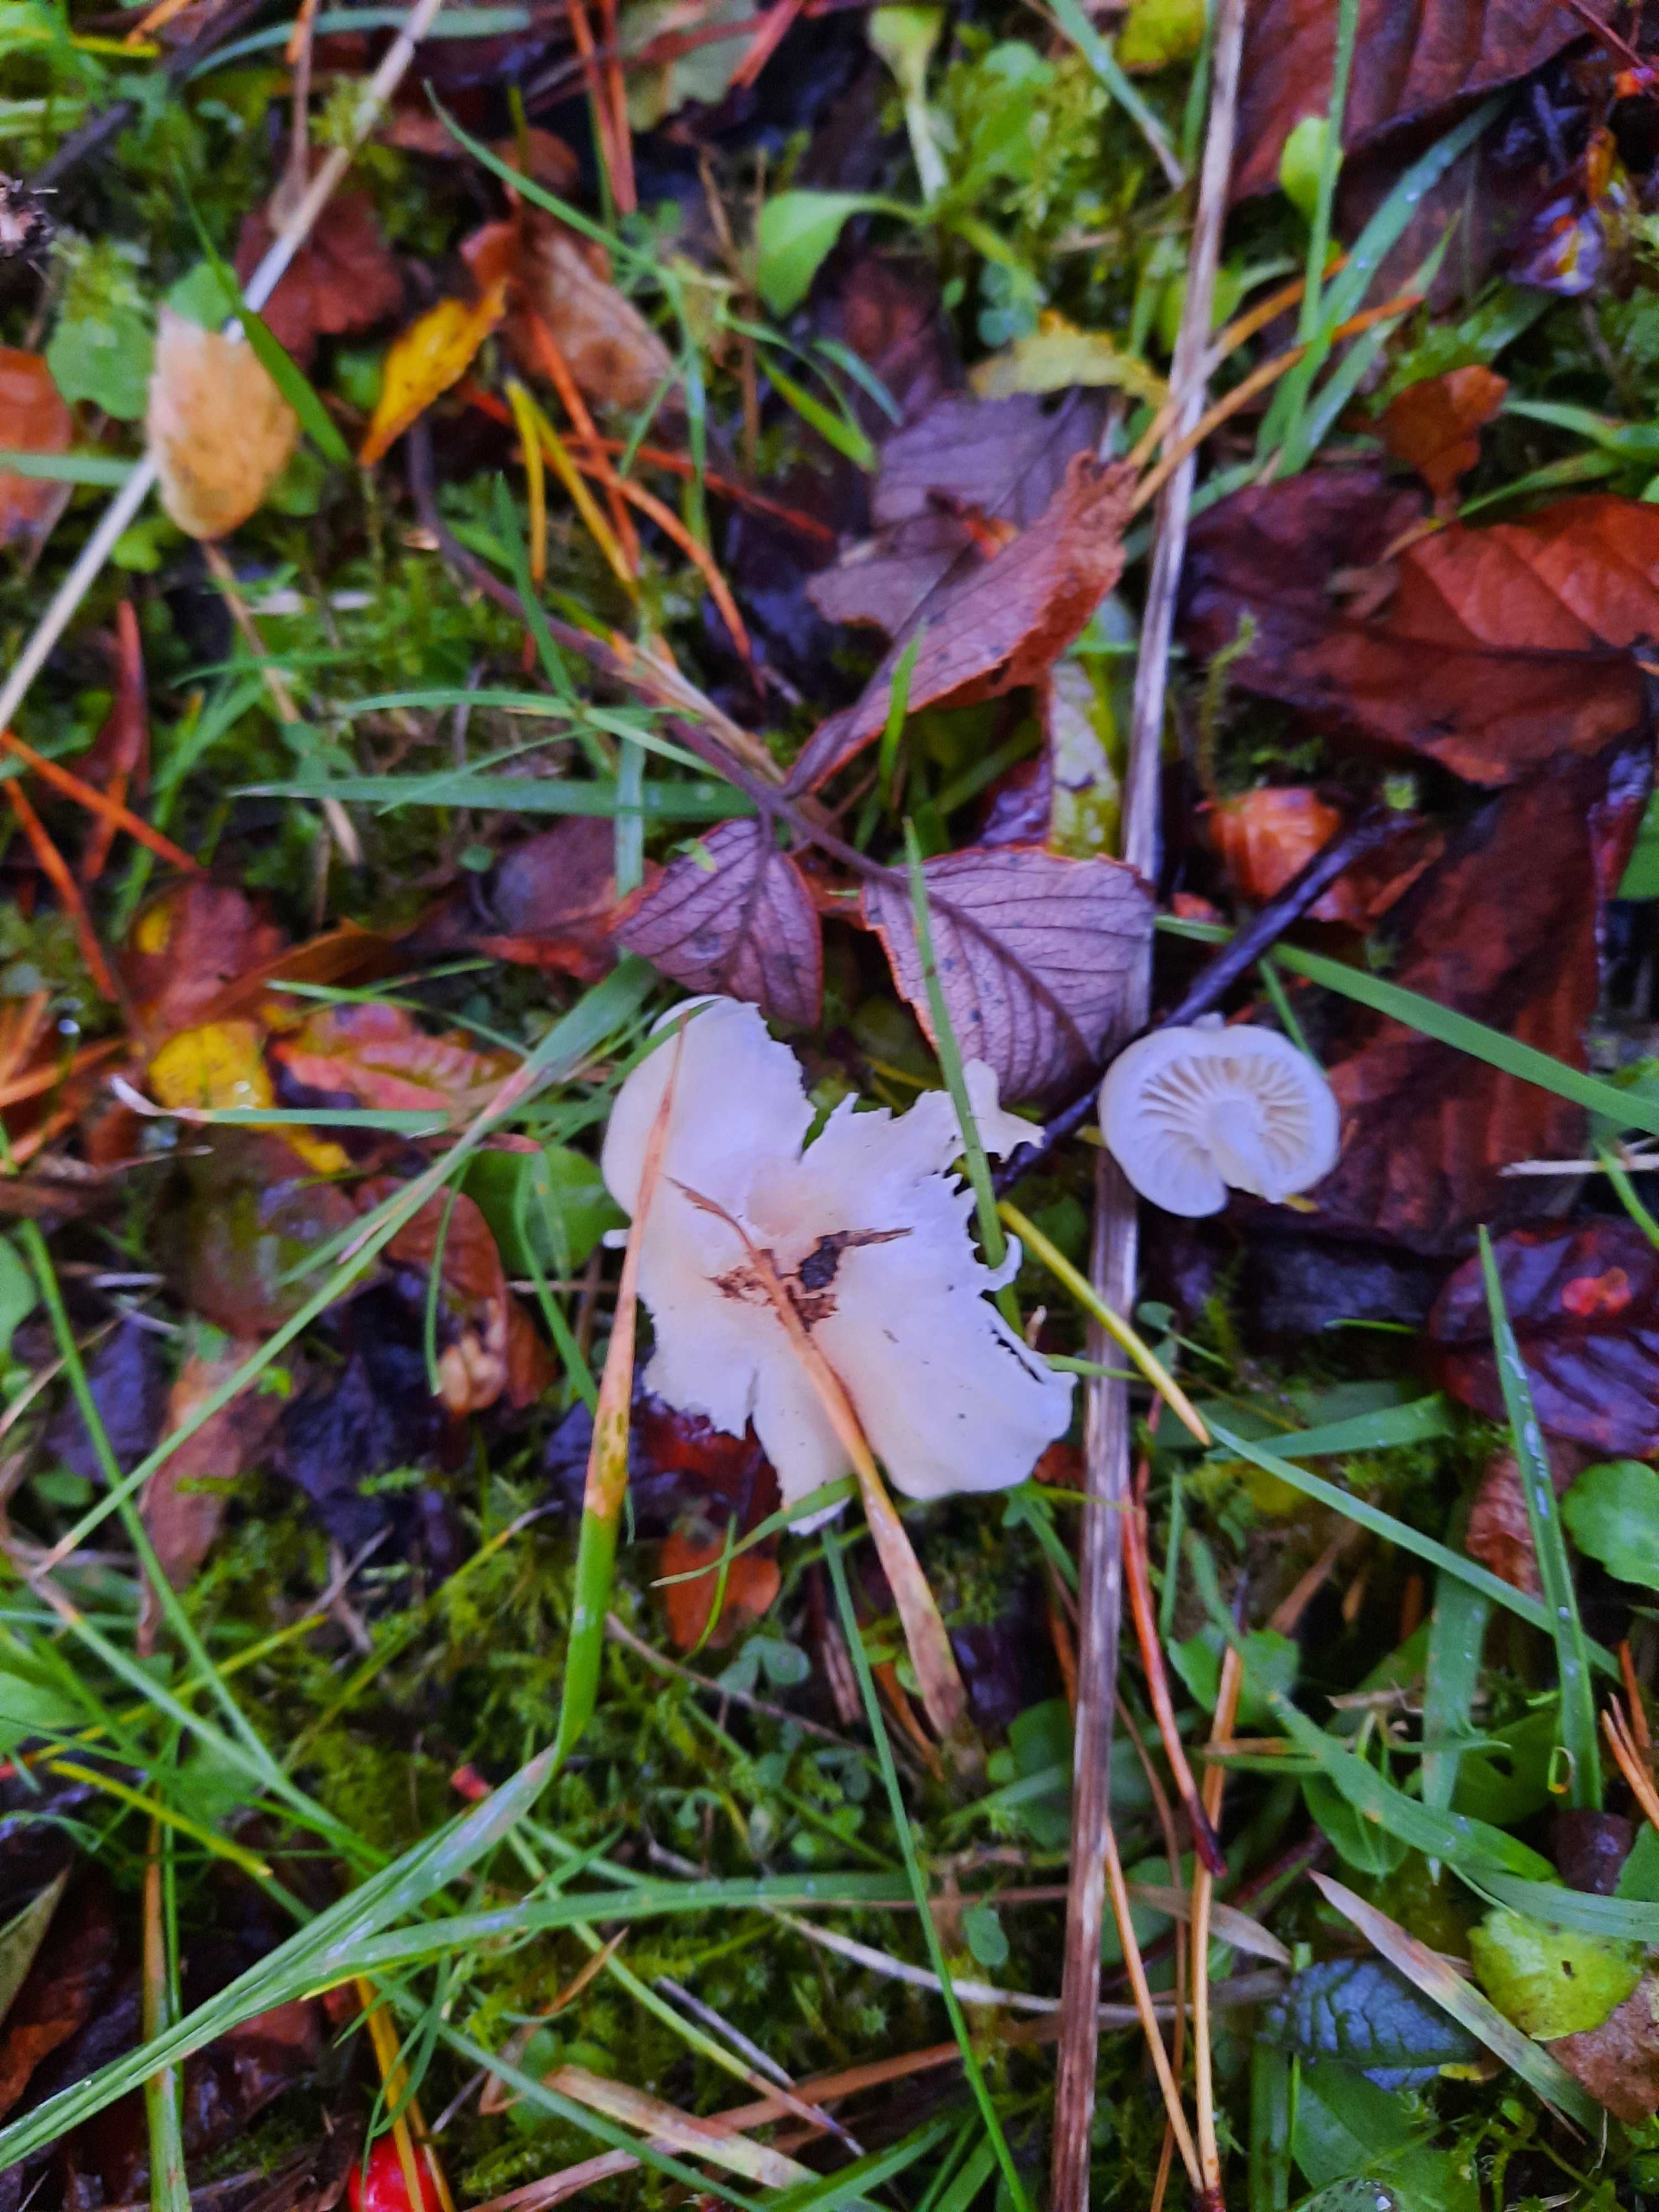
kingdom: Fungi
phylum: Basidiomycota
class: Agaricomycetes
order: Agaricales
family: Hygrophoraceae
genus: Cuphophyllus
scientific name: Cuphophyllus virgineus
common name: snehvid vokshat
